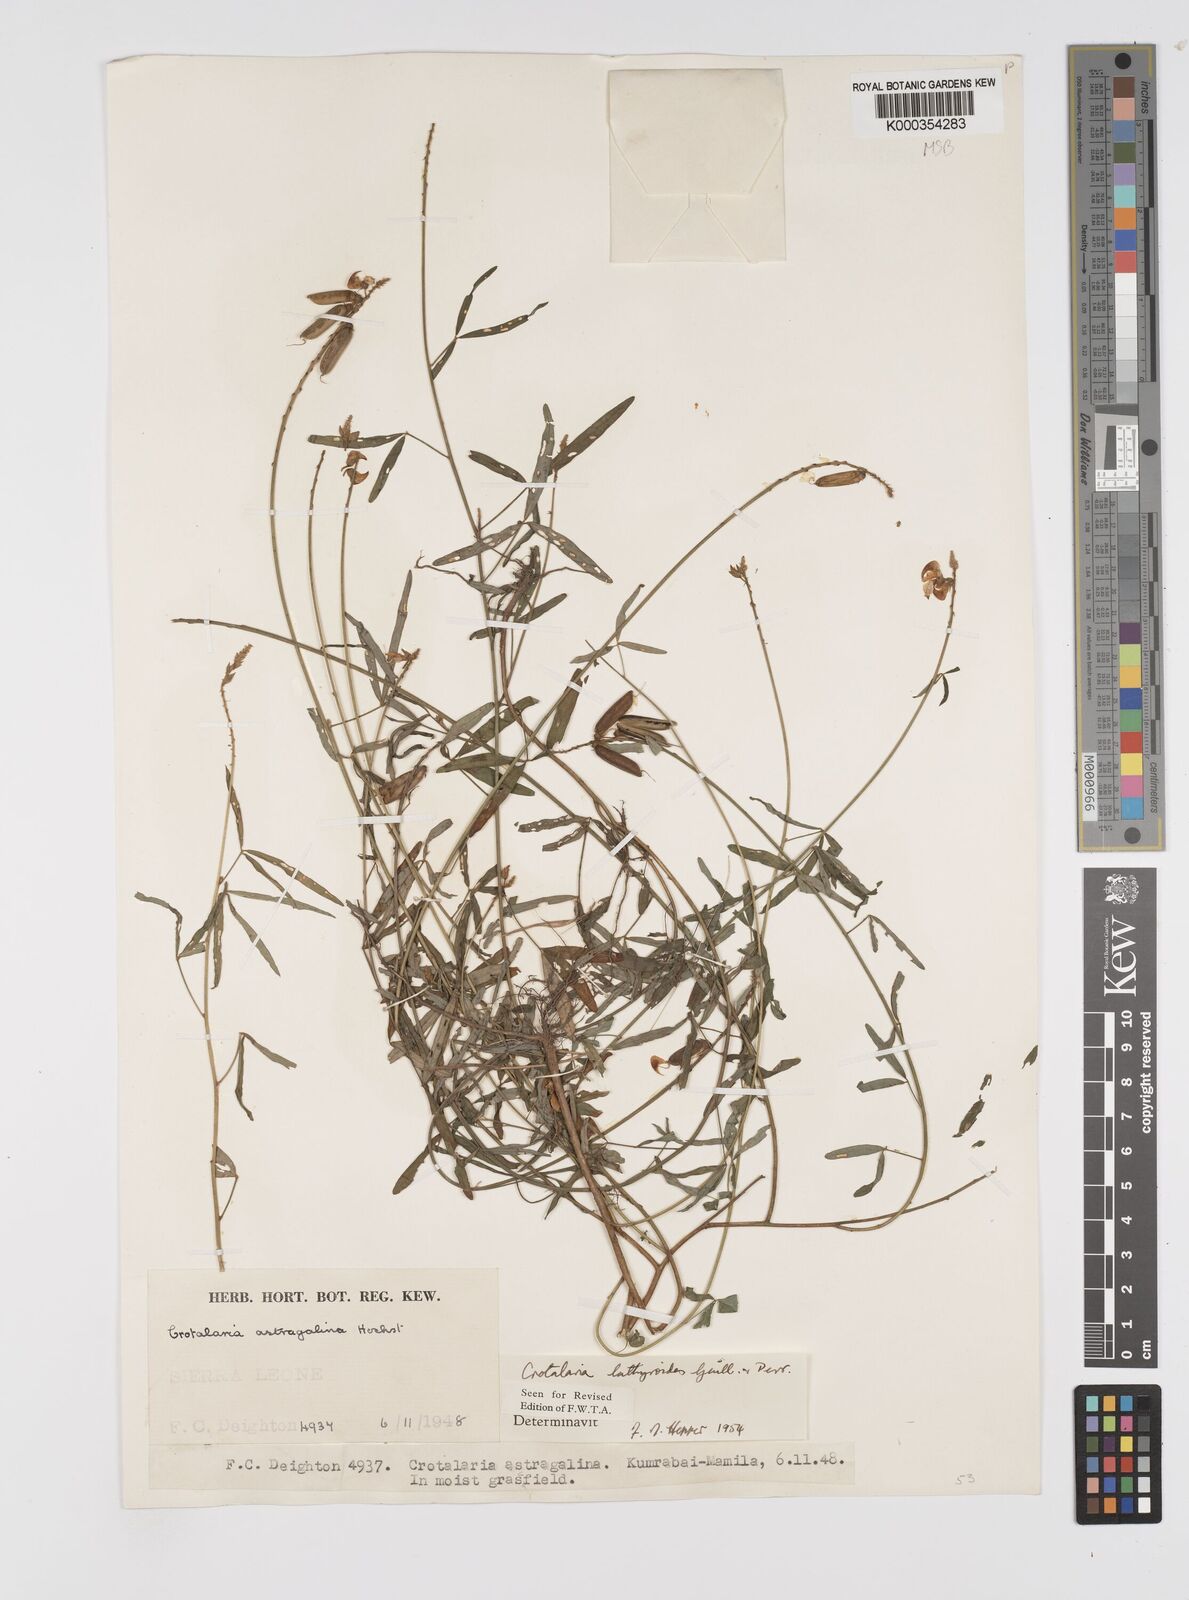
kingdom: Plantae
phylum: Tracheophyta
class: Magnoliopsida
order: Fabales
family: Fabaceae
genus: Crotalaria
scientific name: Crotalaria lathyroides
